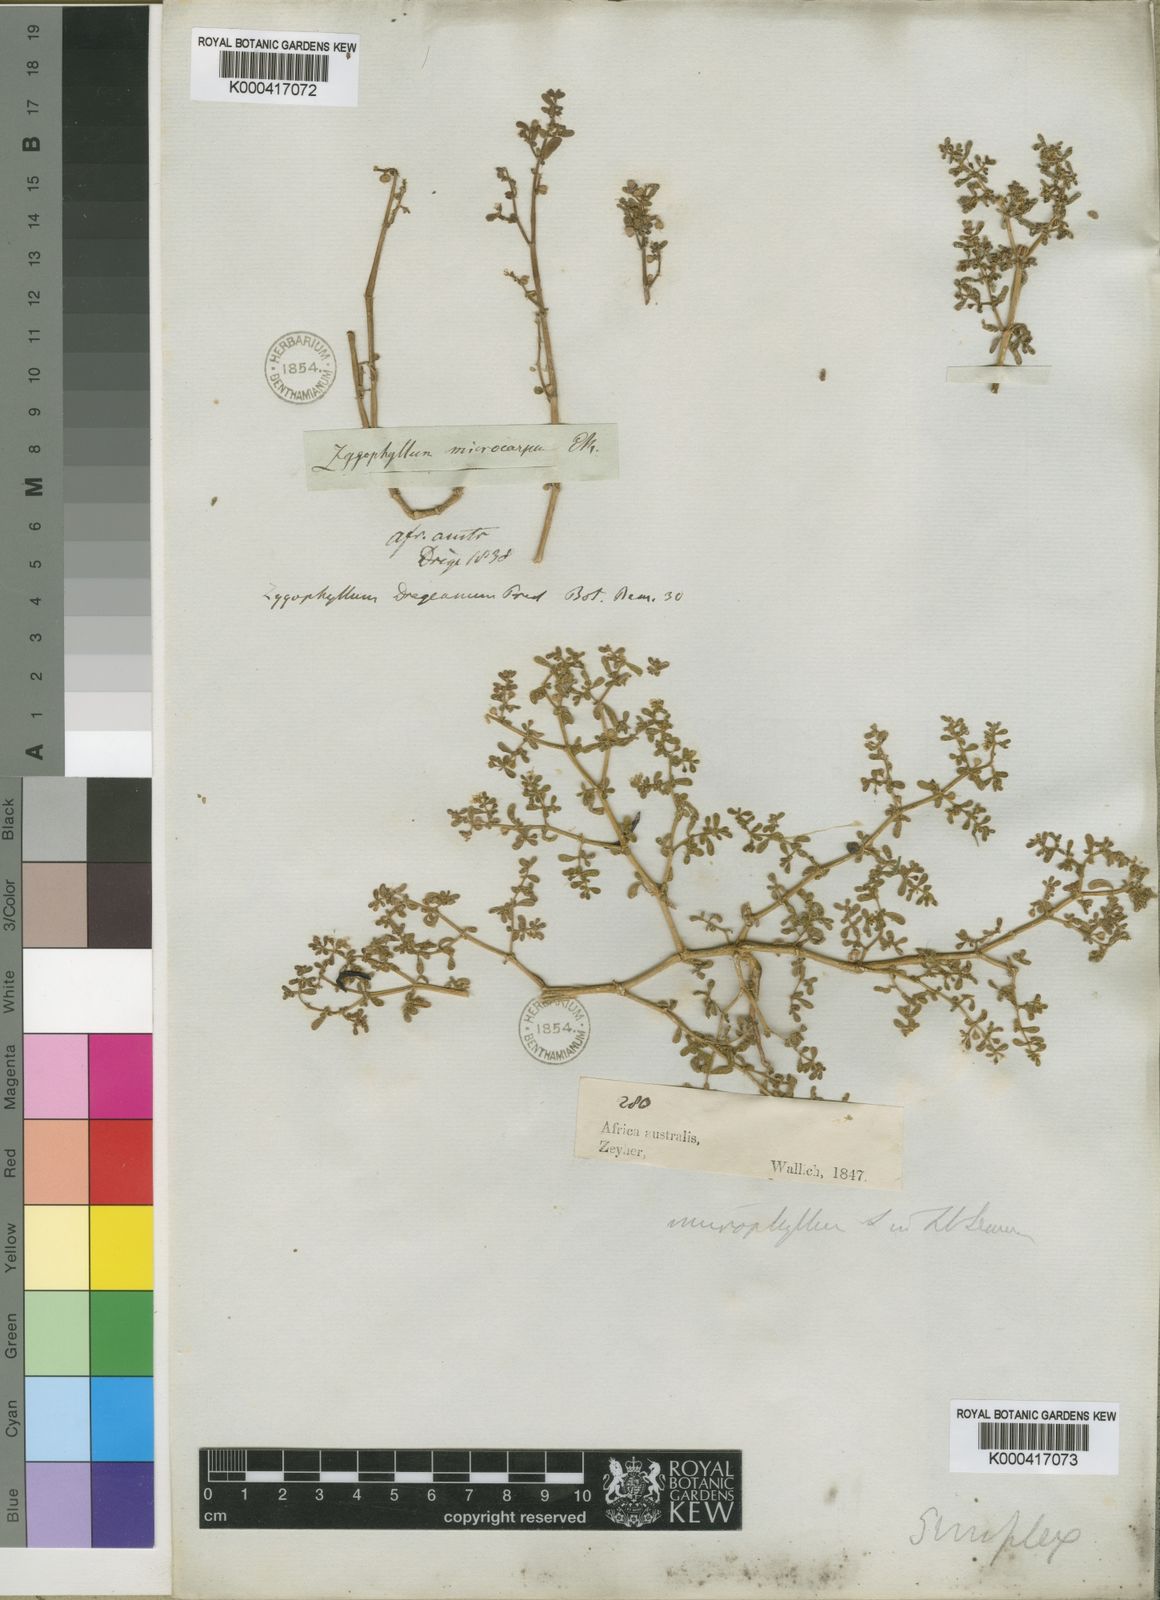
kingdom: Plantae
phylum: Tracheophyta
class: Magnoliopsida
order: Zygophyllales
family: Zygophyllaceae
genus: Tetraena
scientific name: Tetraena simplex
